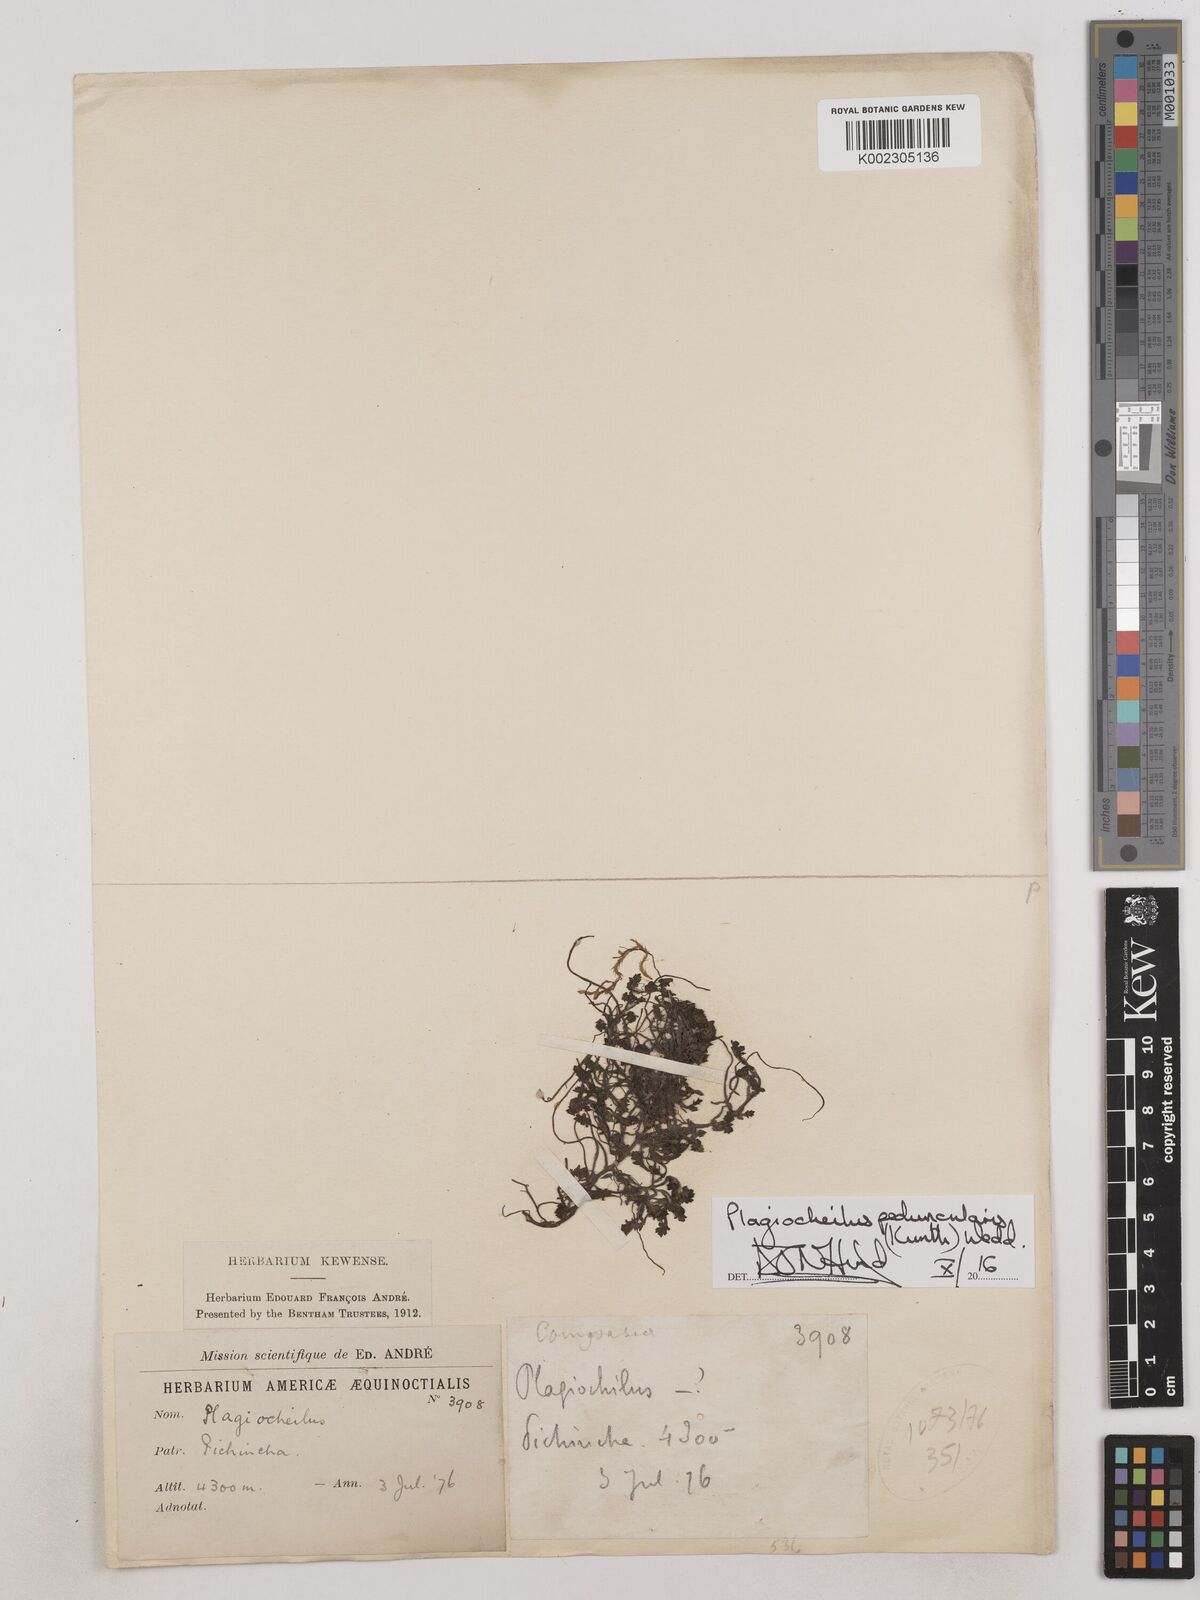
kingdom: Plantae
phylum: Tracheophyta
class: Magnoliopsida
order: Asterales
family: Asteraceae
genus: Plagiocheilus
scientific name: Plagiocheilus peduncularis
